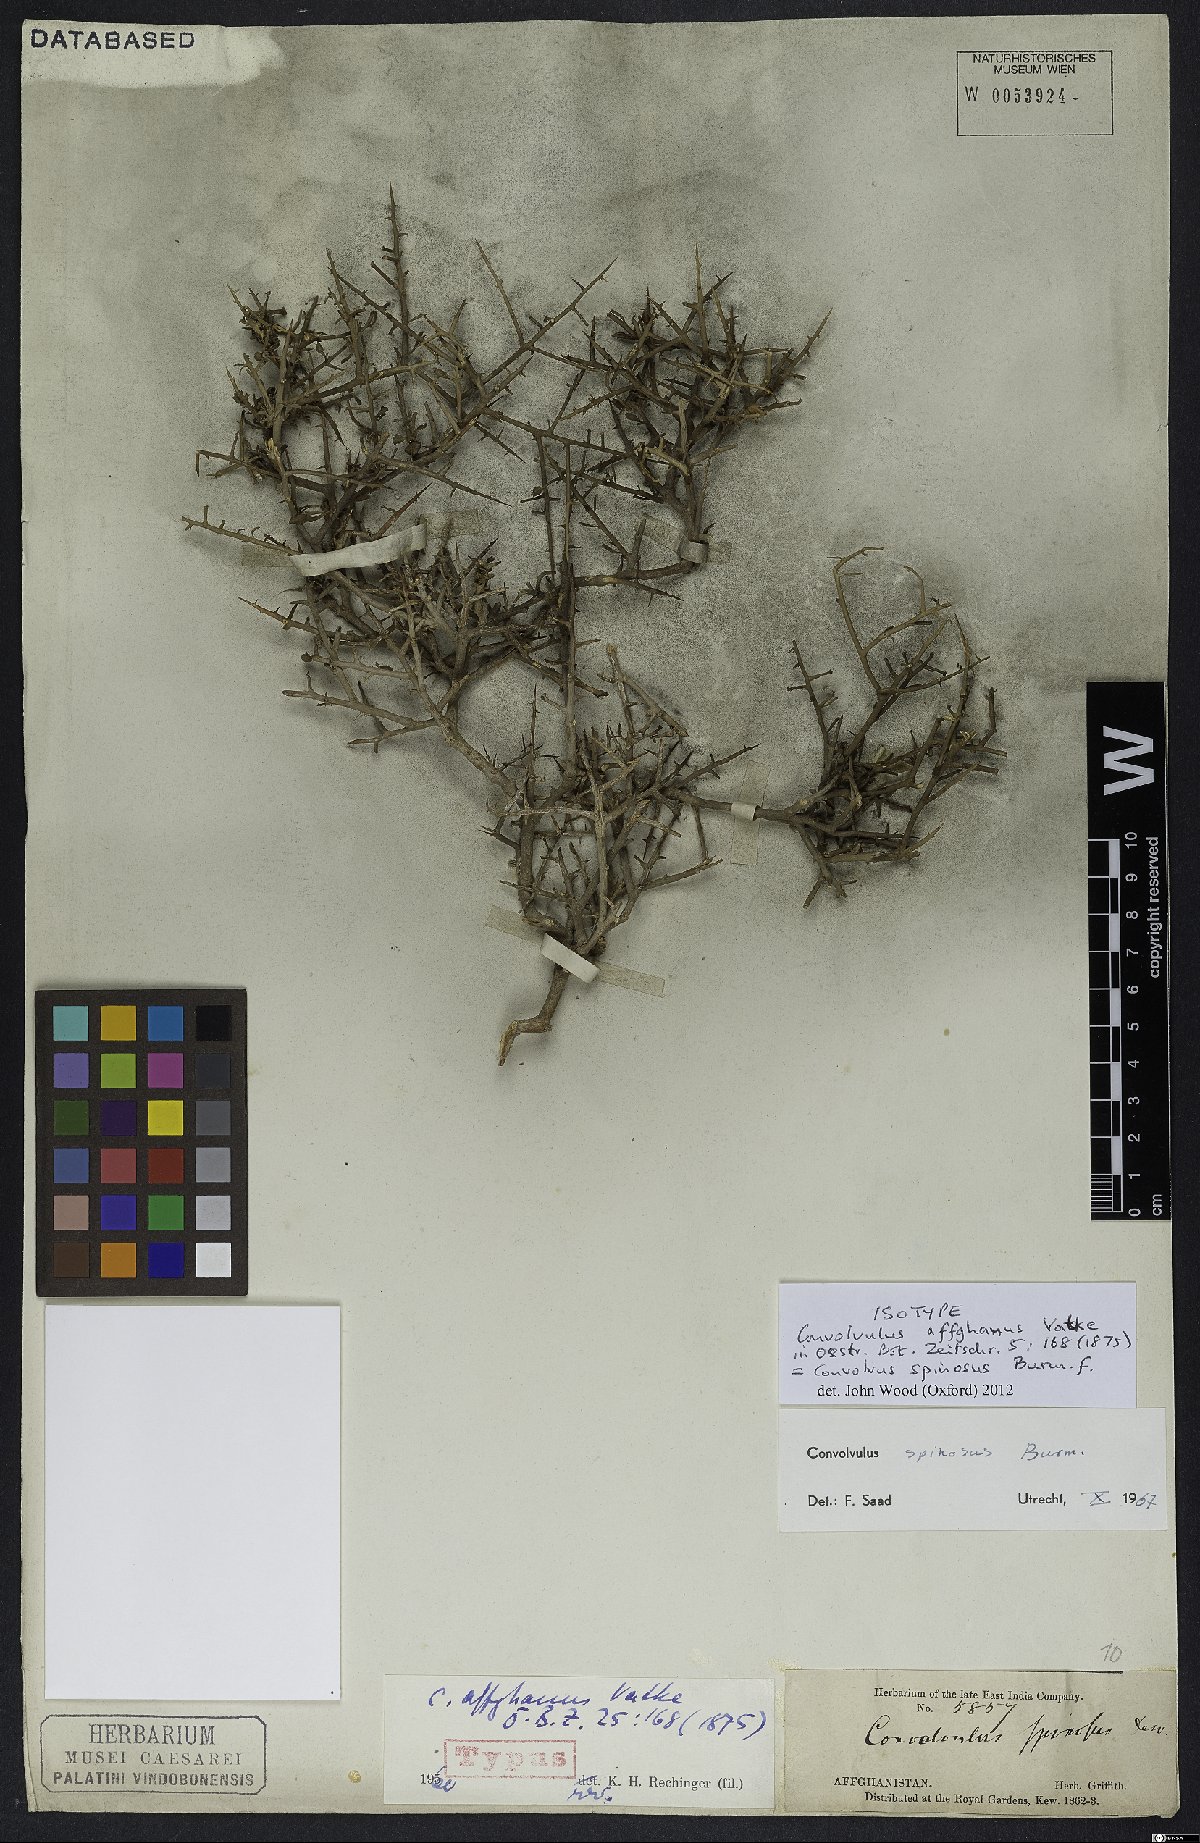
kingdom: Plantae
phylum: Tracheophyta
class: Magnoliopsida
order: Solanales
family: Convolvulaceae
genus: Convolvulus
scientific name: Convolvulus spinosus
